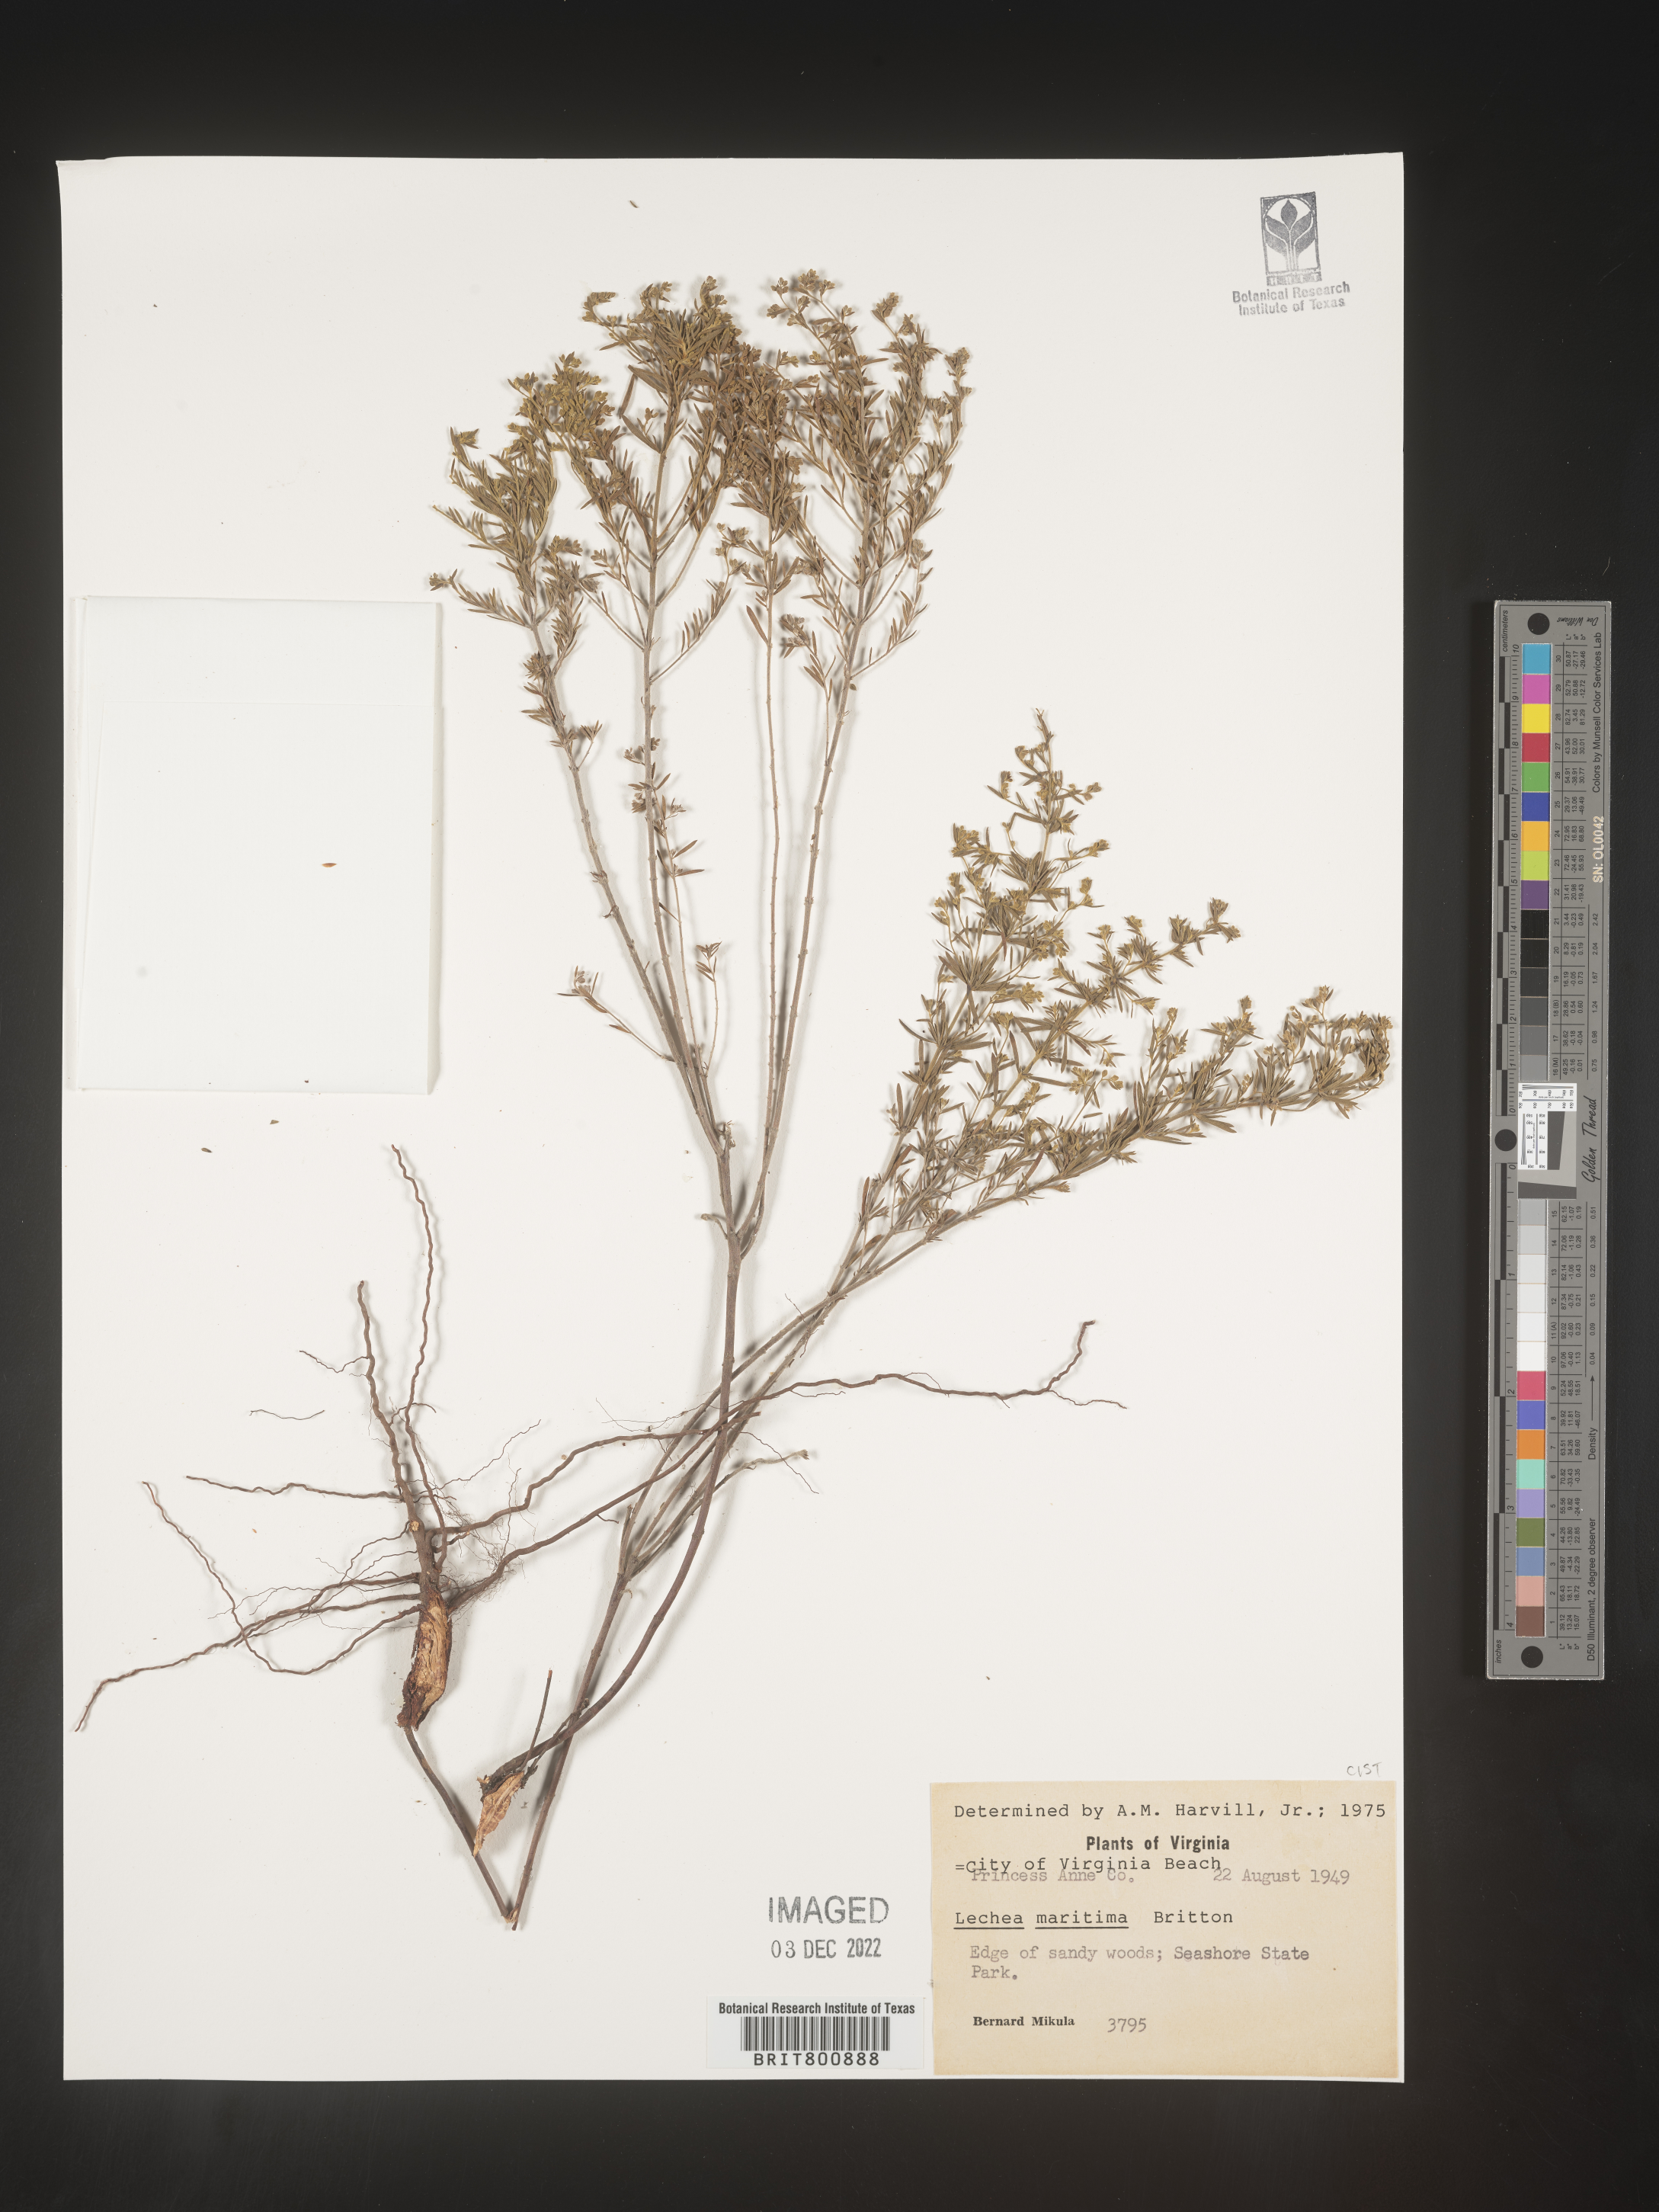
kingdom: Plantae
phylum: Tracheophyta
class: Magnoliopsida
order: Malvales
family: Cistaceae
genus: Lechea
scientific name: Lechea maritima
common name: Beach pinweed
